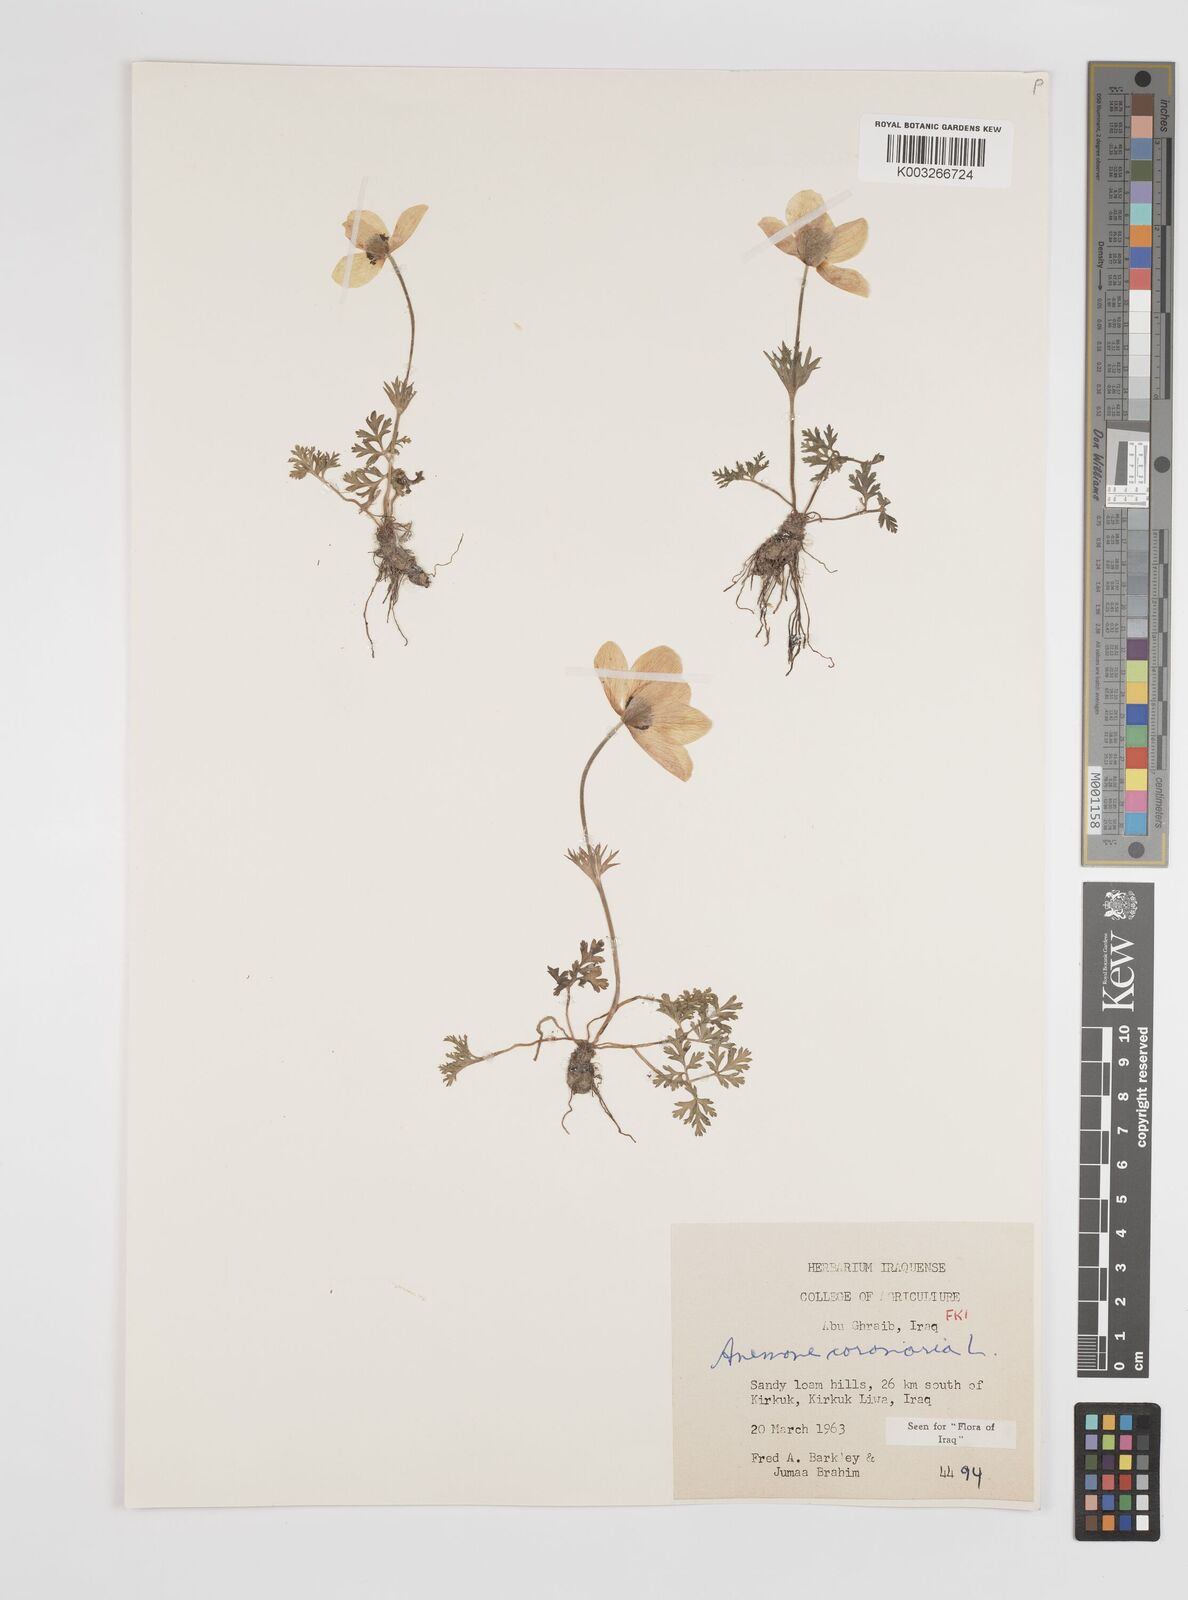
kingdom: Plantae
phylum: Tracheophyta
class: Magnoliopsida
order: Ranunculales
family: Ranunculaceae
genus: Anemone
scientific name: Anemone coronaria
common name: Poppy anemone
